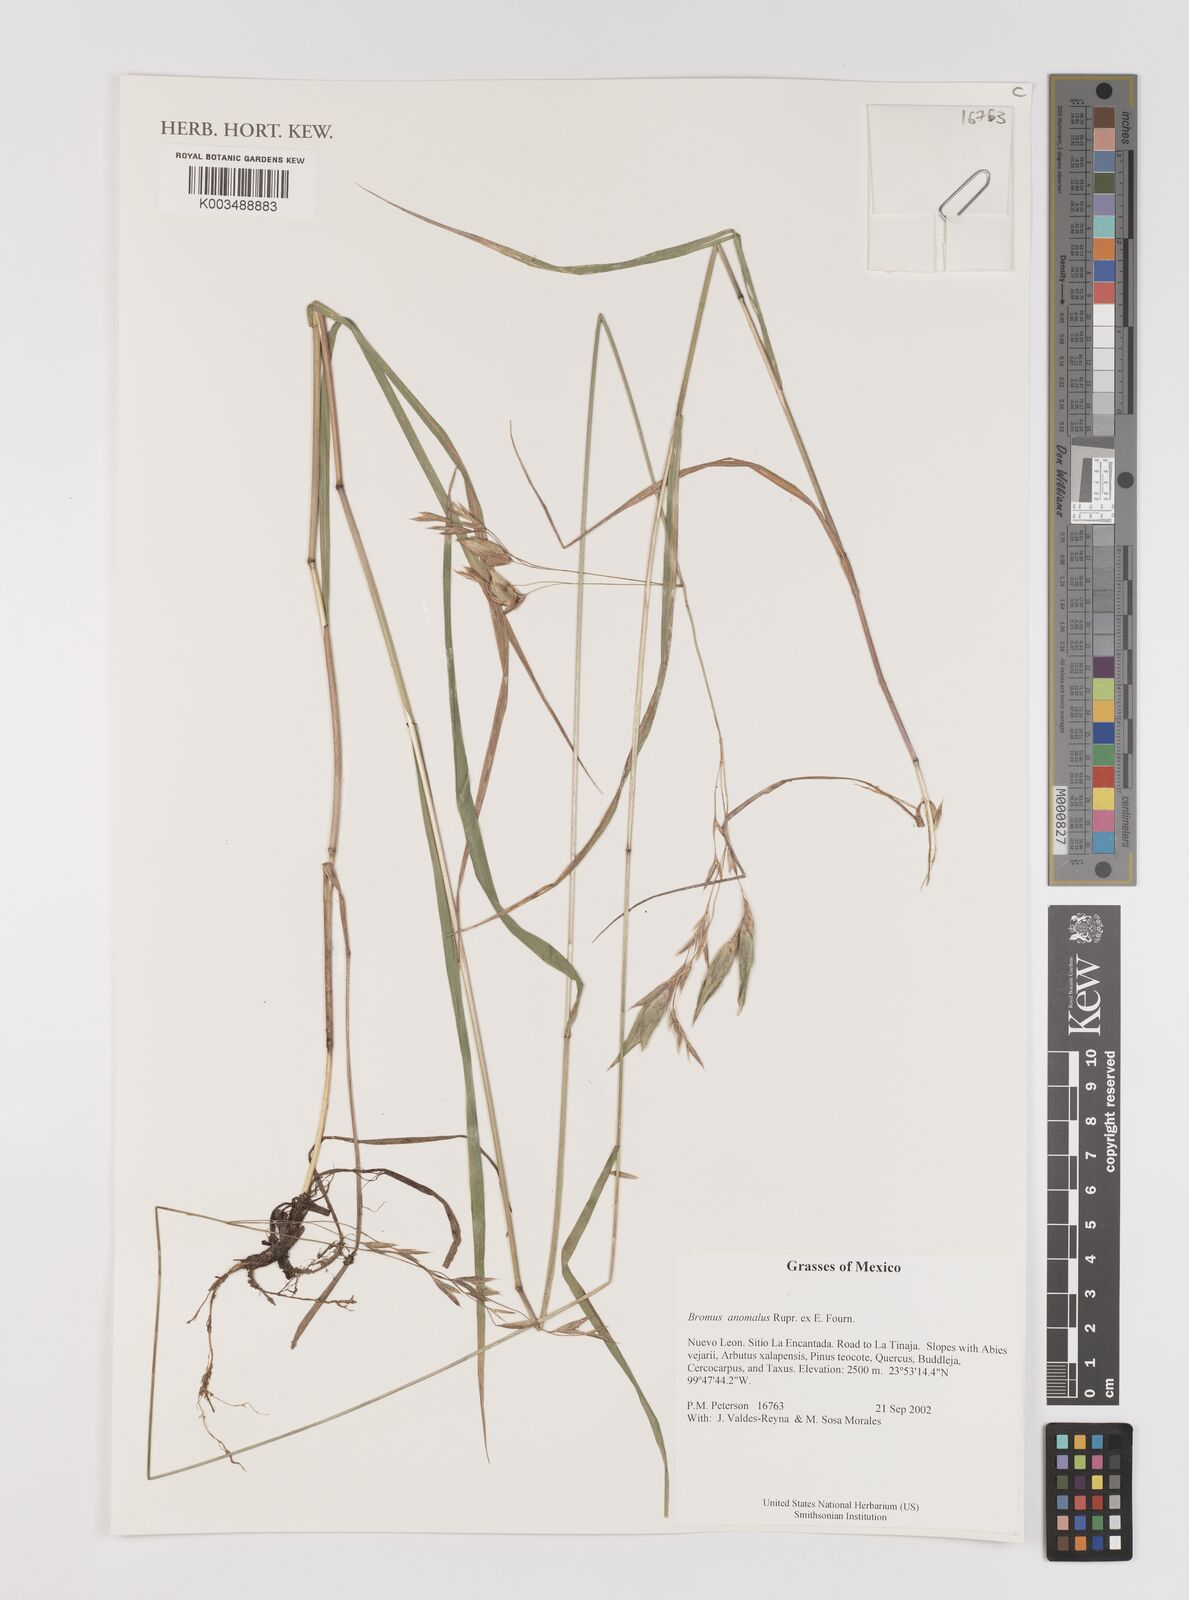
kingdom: Plantae
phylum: Tracheophyta
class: Liliopsida
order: Poales
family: Poaceae
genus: Bromus
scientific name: Bromus anomalus
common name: Nodding brome
